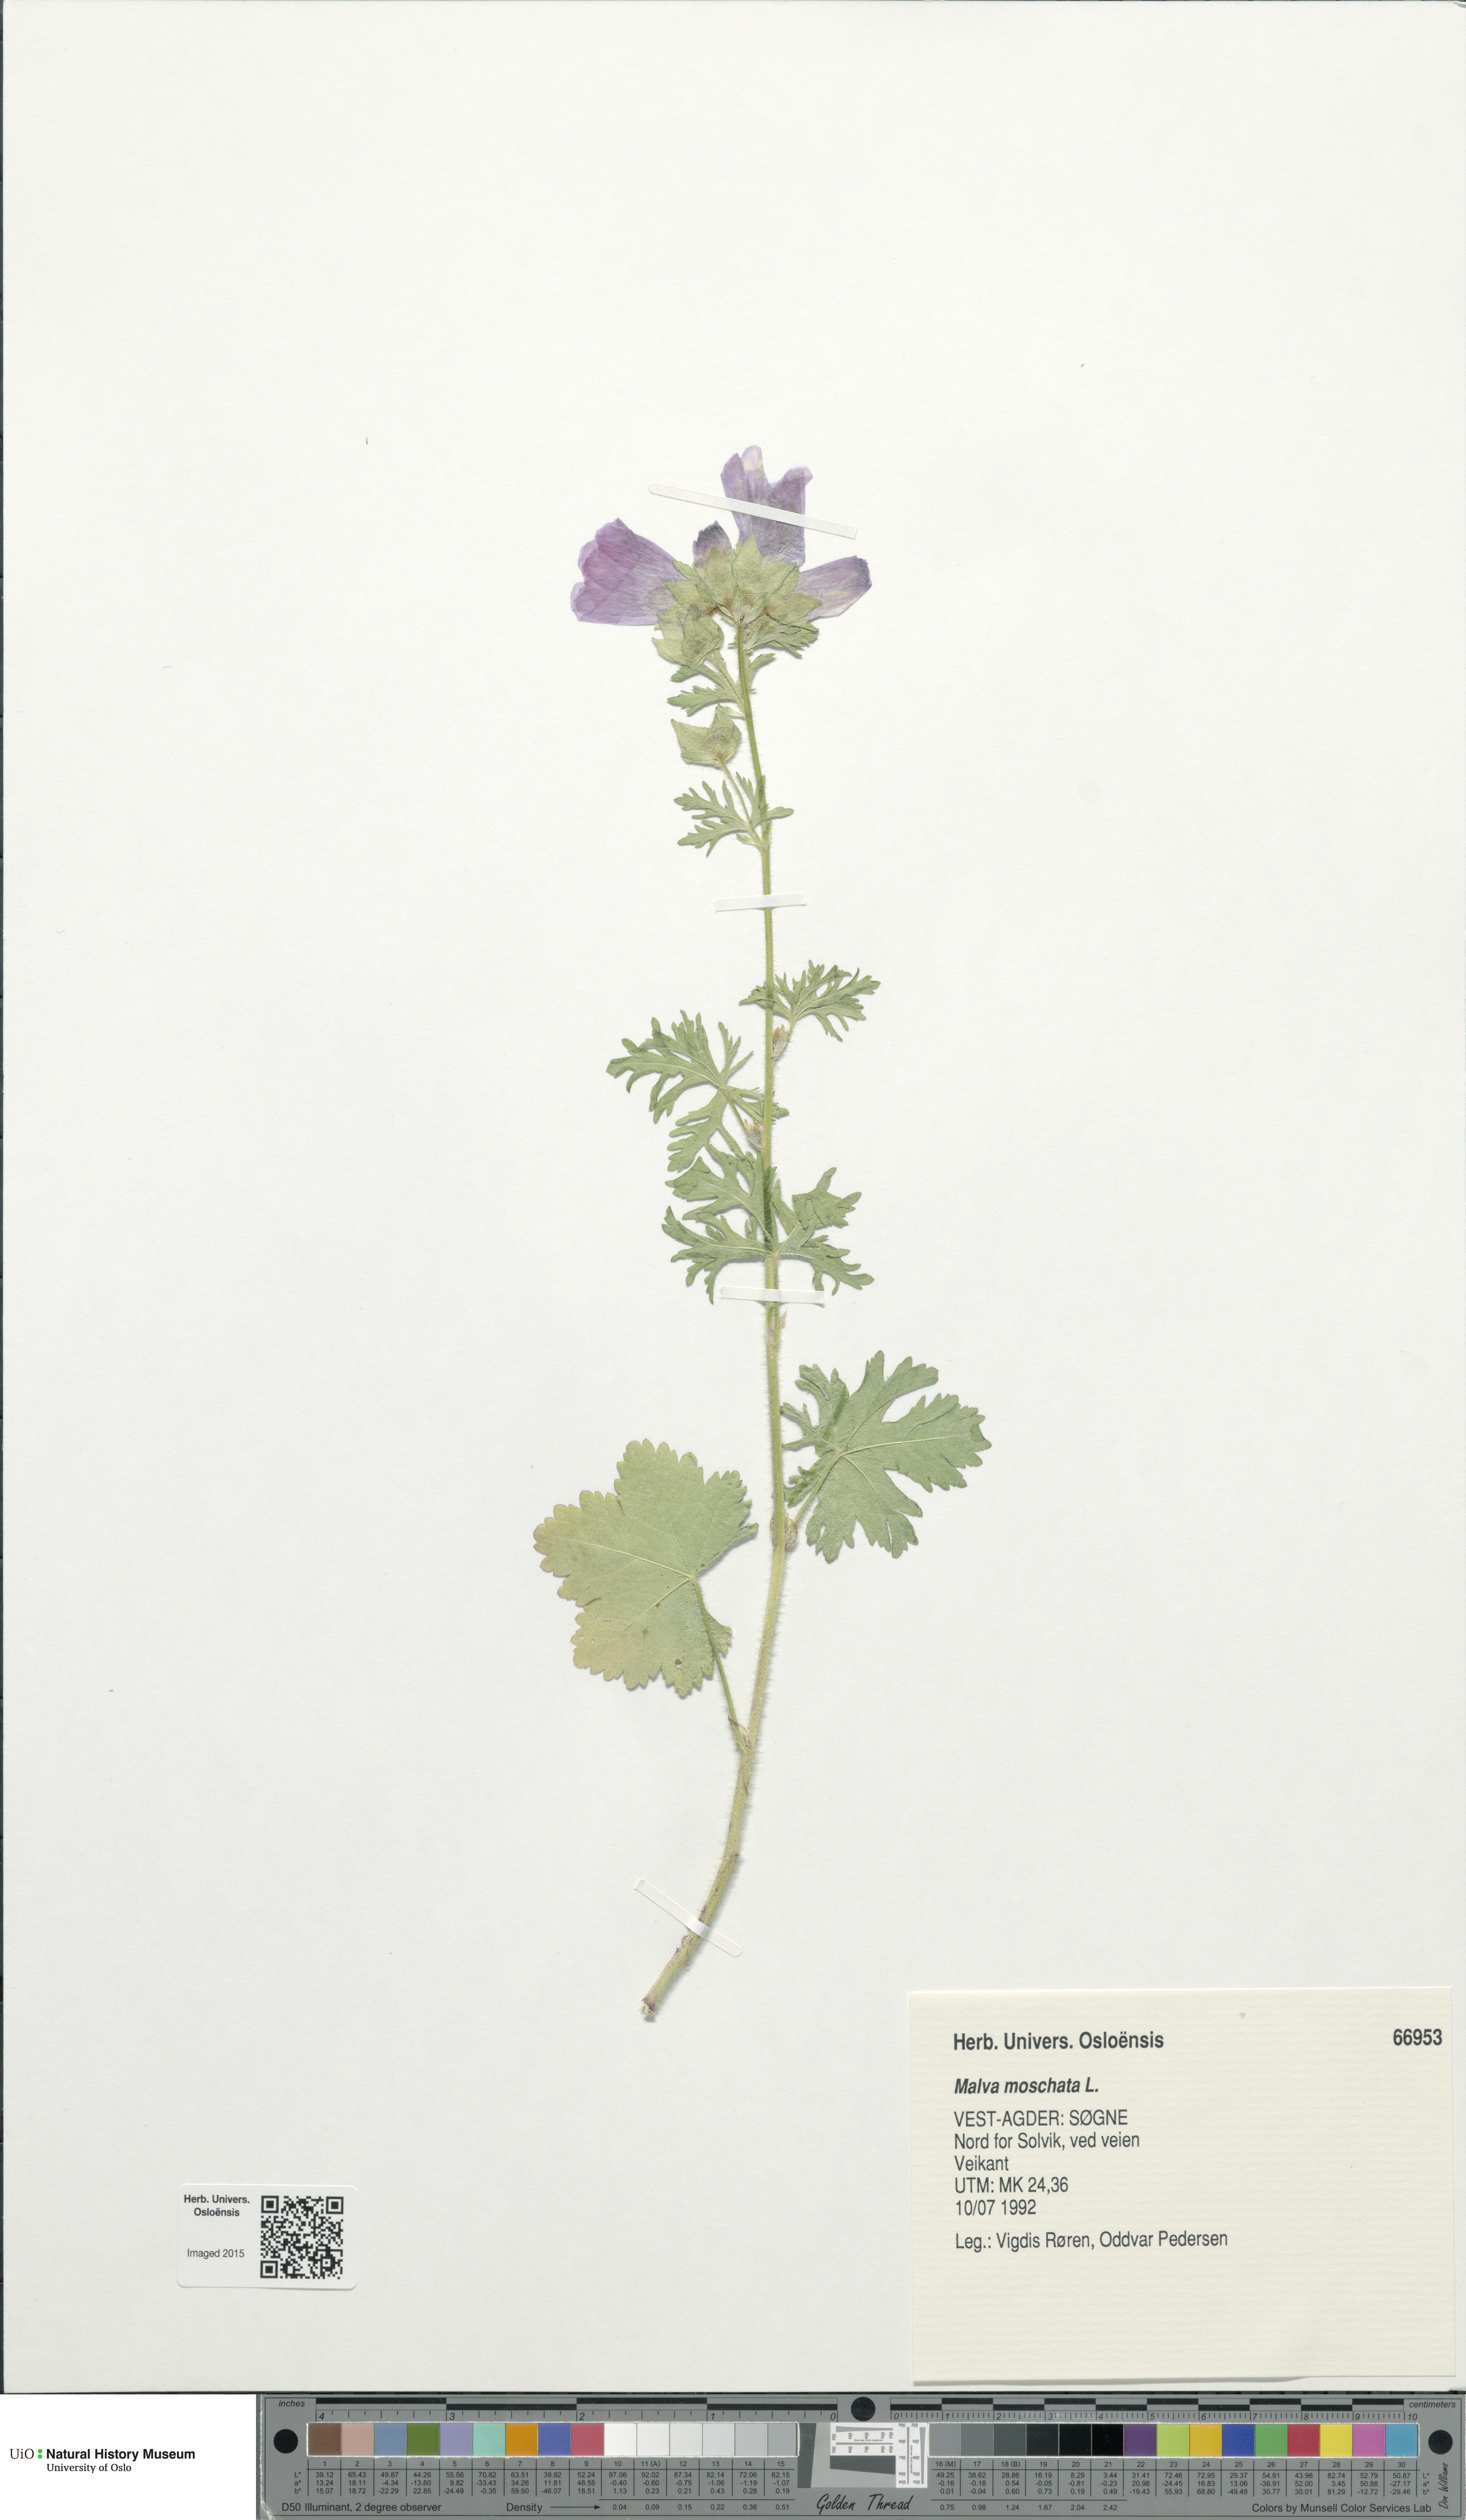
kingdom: Plantae
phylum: Tracheophyta
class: Magnoliopsida
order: Malvales
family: Malvaceae
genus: Malva
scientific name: Malva moschata
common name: Musk mallow
